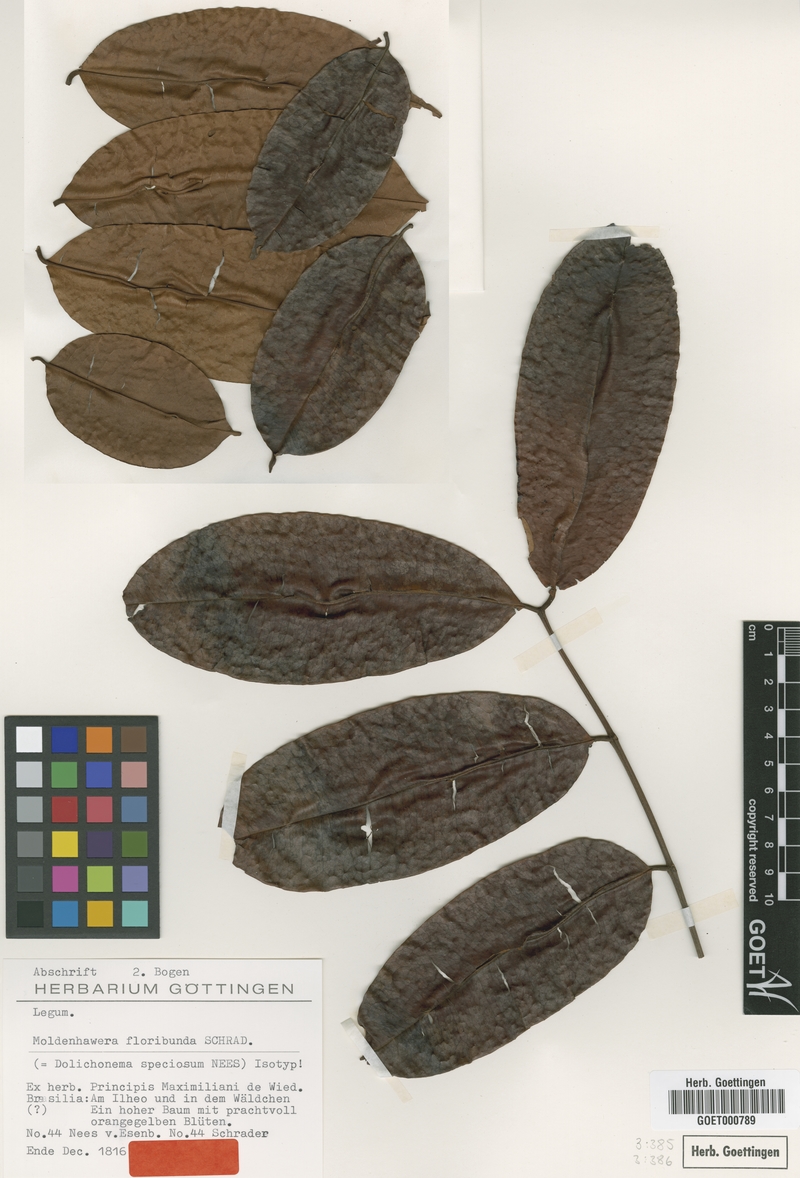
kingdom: Plantae
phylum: Tracheophyta
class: Magnoliopsida
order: Fabales
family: Fabaceae
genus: Moldenhawera
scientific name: Moldenhawera floribunda
